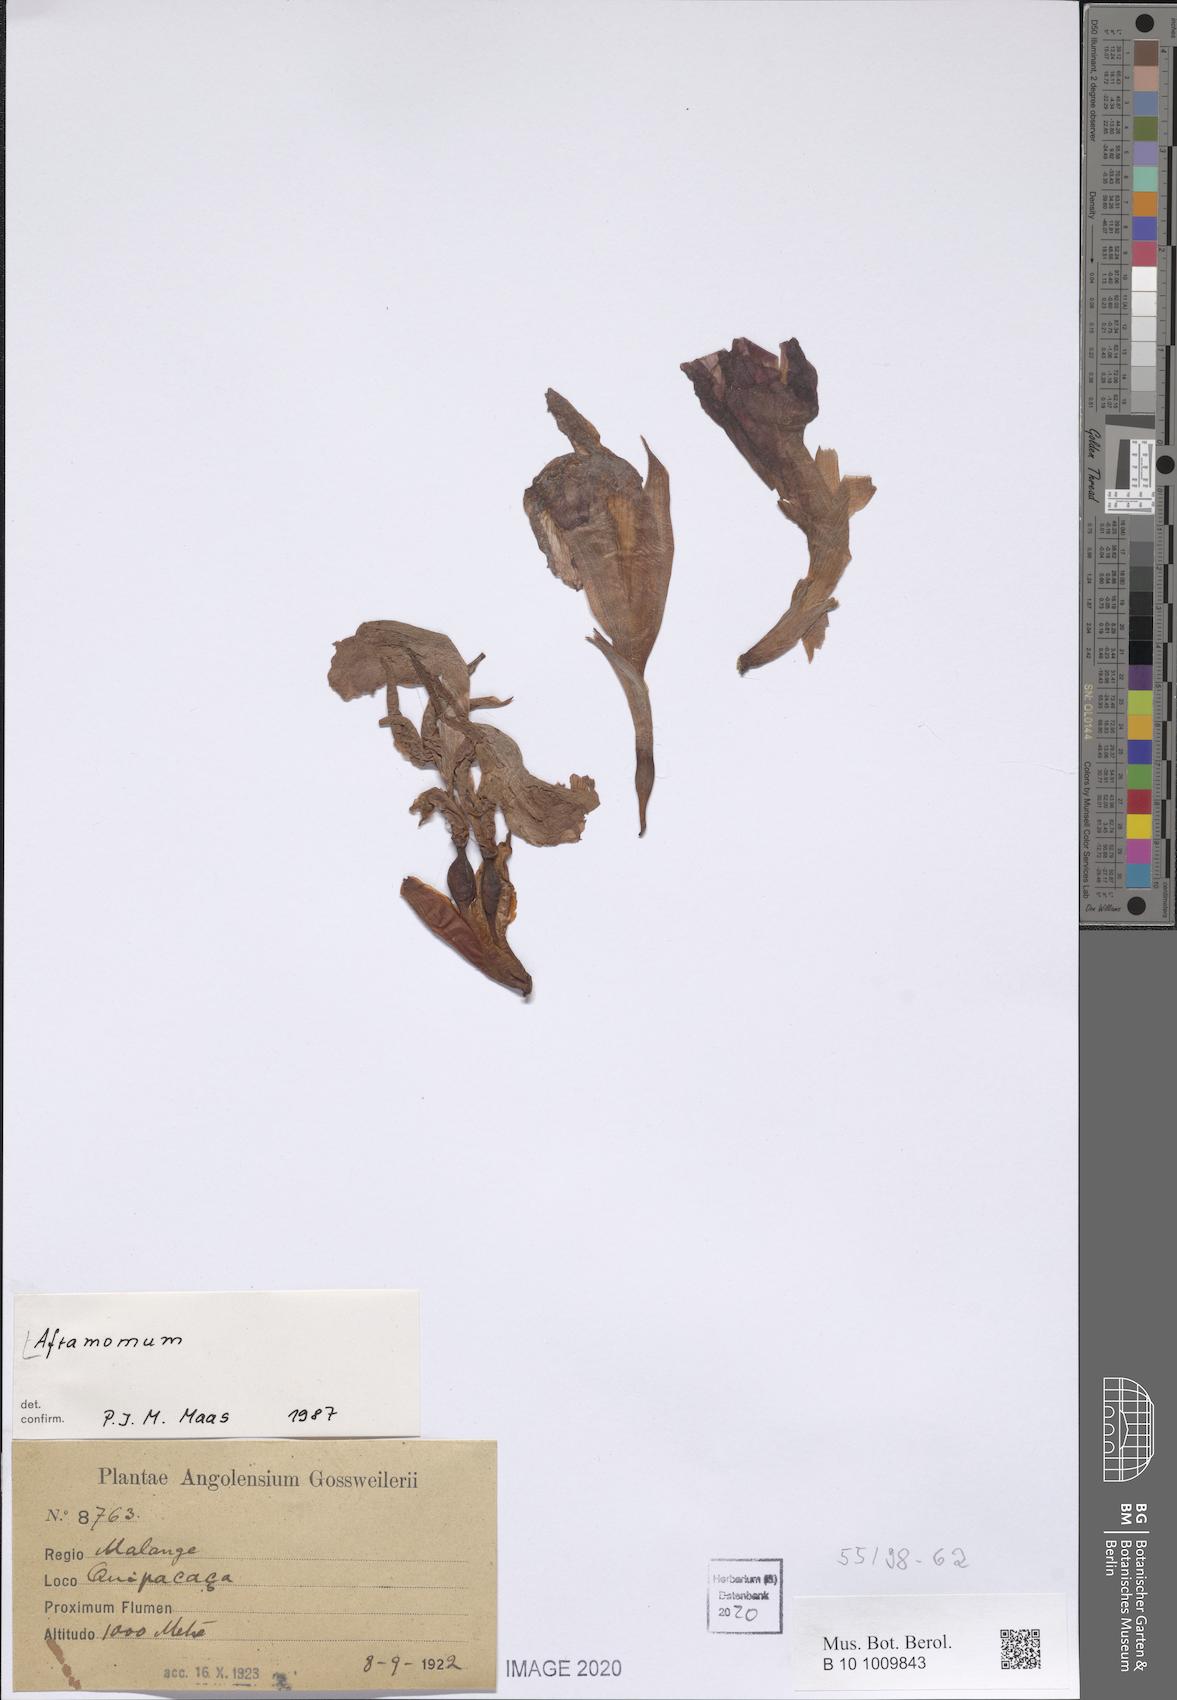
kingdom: Plantae
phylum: Tracheophyta
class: Liliopsida
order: Zingiberales
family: Zingiberaceae
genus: Aframomum
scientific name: Aframomum
